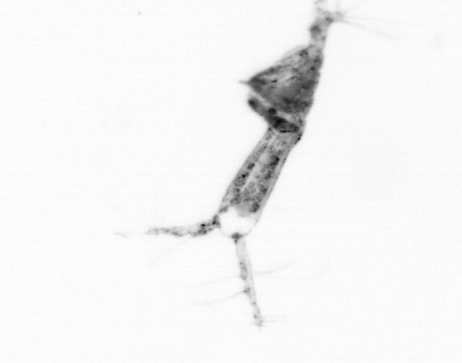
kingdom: Animalia
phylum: Arthropoda
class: Copepoda
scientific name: Copepoda
